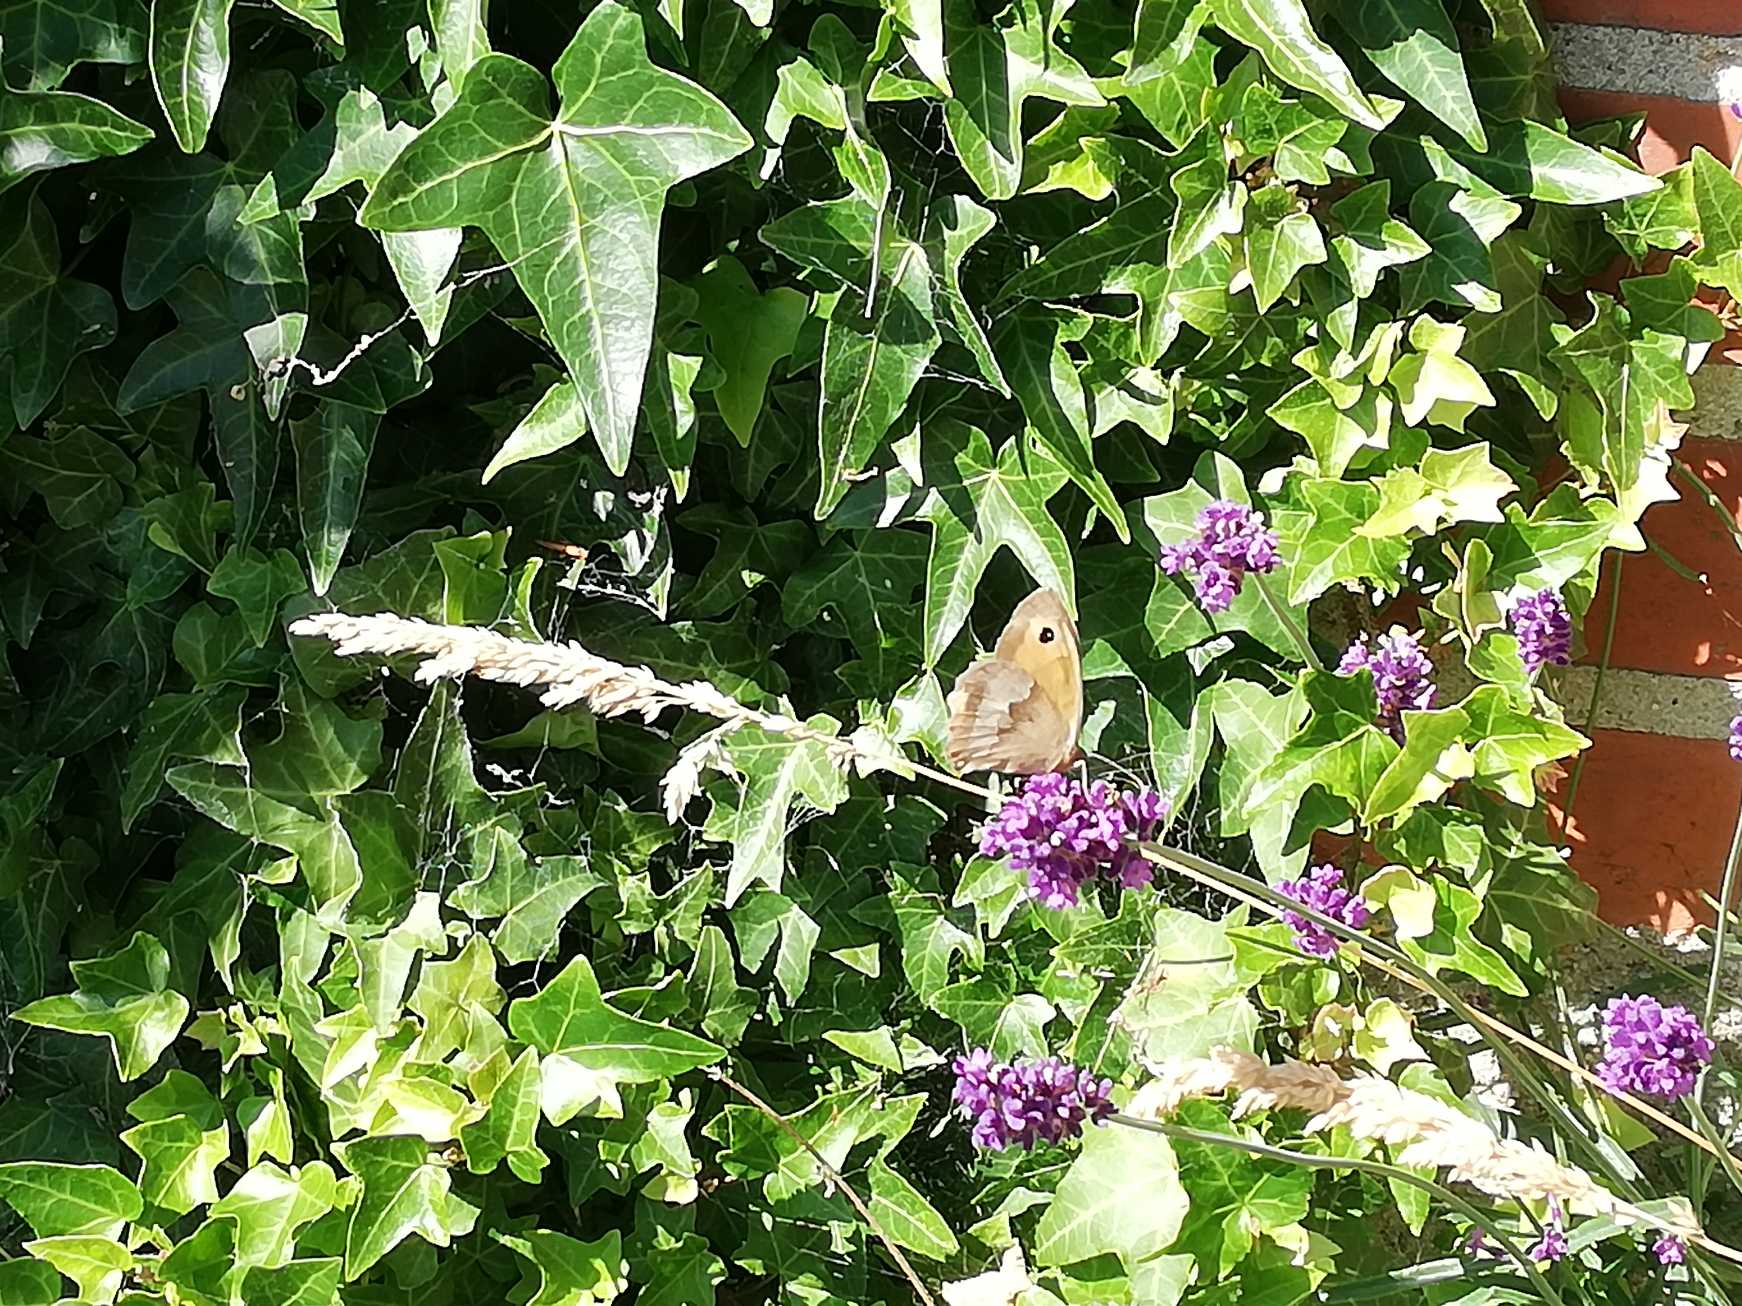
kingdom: Animalia
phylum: Arthropoda
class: Insecta
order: Lepidoptera
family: Nymphalidae
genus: Maniola
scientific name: Maniola jurtina
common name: Græsrandøje
